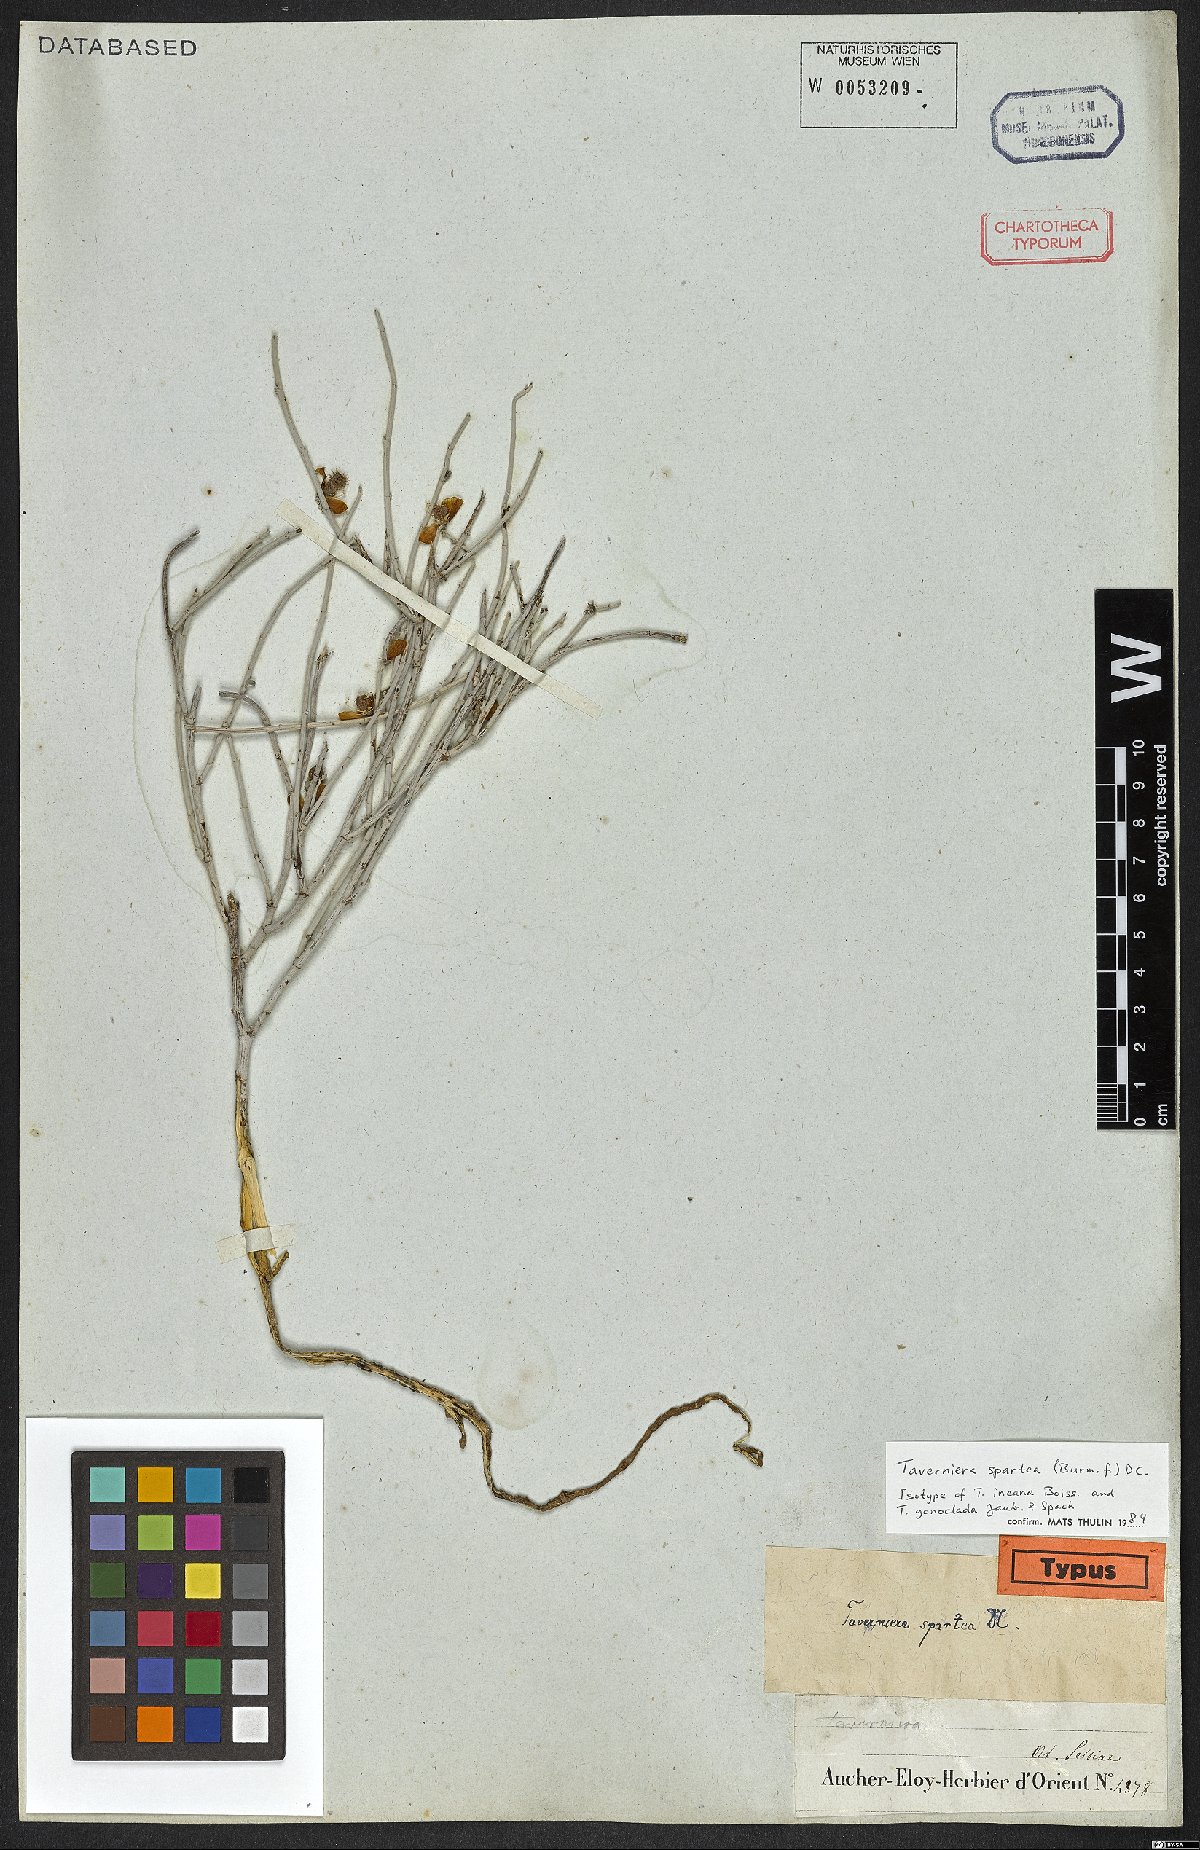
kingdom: Plantae
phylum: Tracheophyta
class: Magnoliopsida
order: Fabales
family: Fabaceae
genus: Taverniera
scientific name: Taverniera spartea
